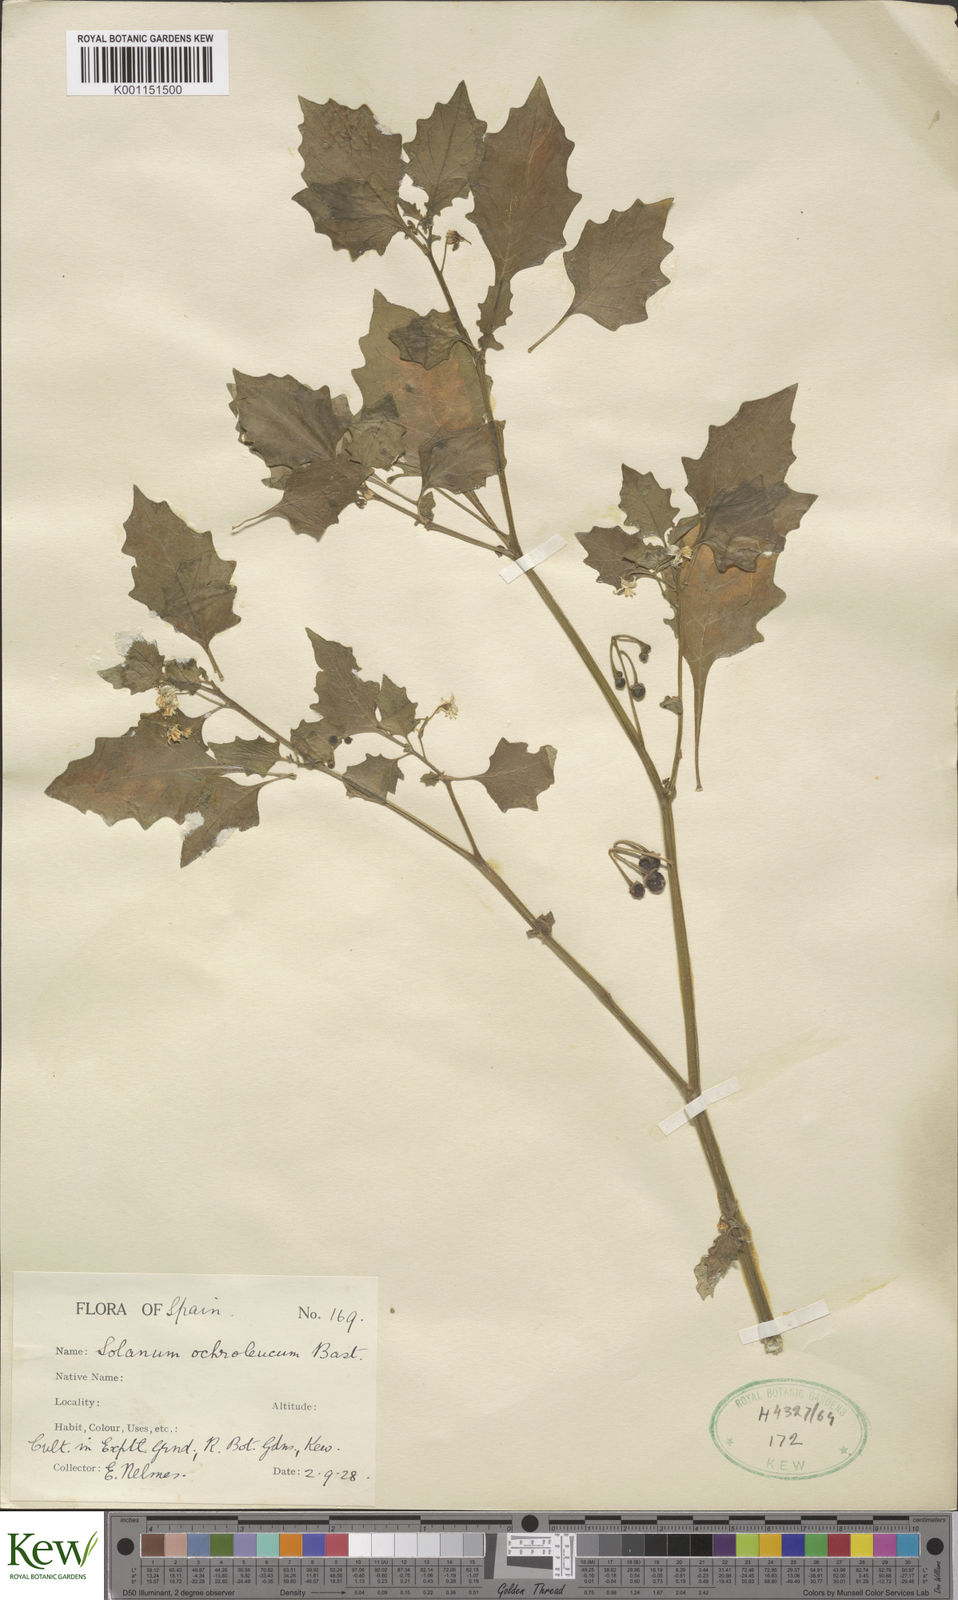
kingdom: Plantae
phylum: Tracheophyta
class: Magnoliopsida
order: Solanales
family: Solanaceae
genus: Solanum
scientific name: Solanum villosum
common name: Red nightshade
